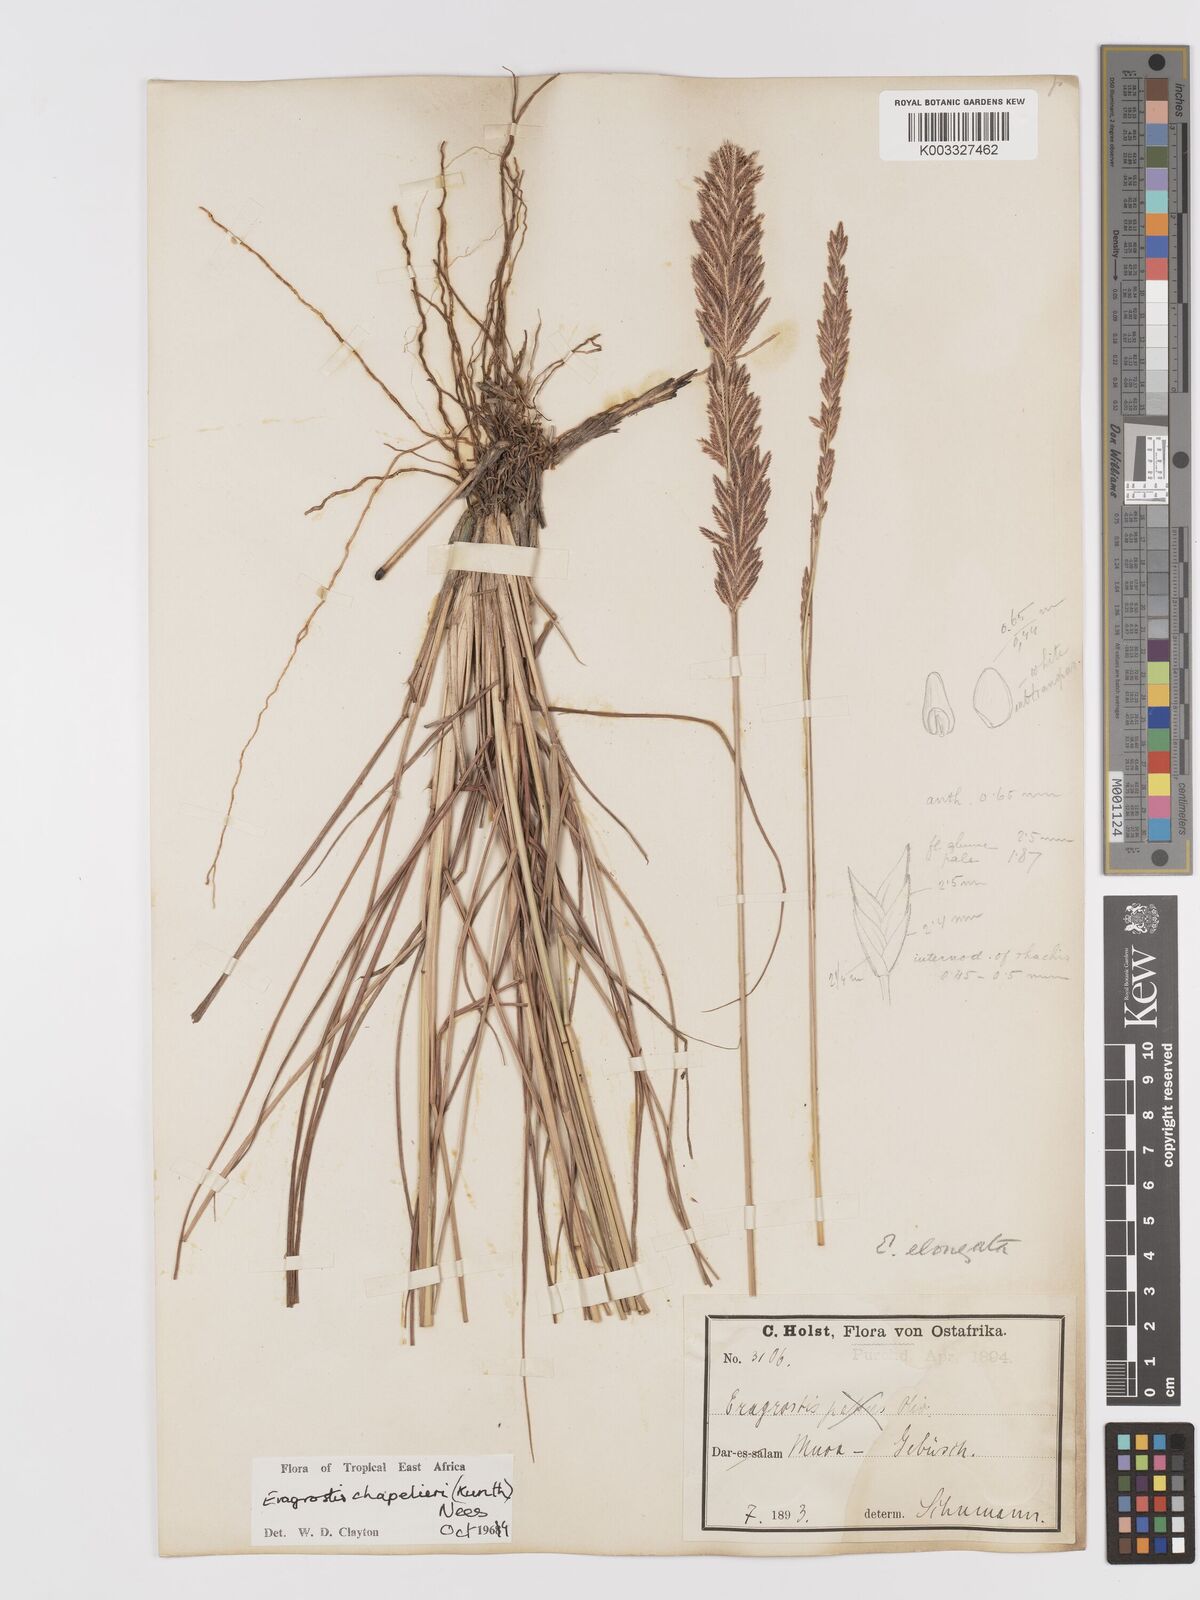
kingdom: Plantae
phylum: Tracheophyta
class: Liliopsida
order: Poales
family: Poaceae
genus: Eragrostis
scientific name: Eragrostis chapelieri
